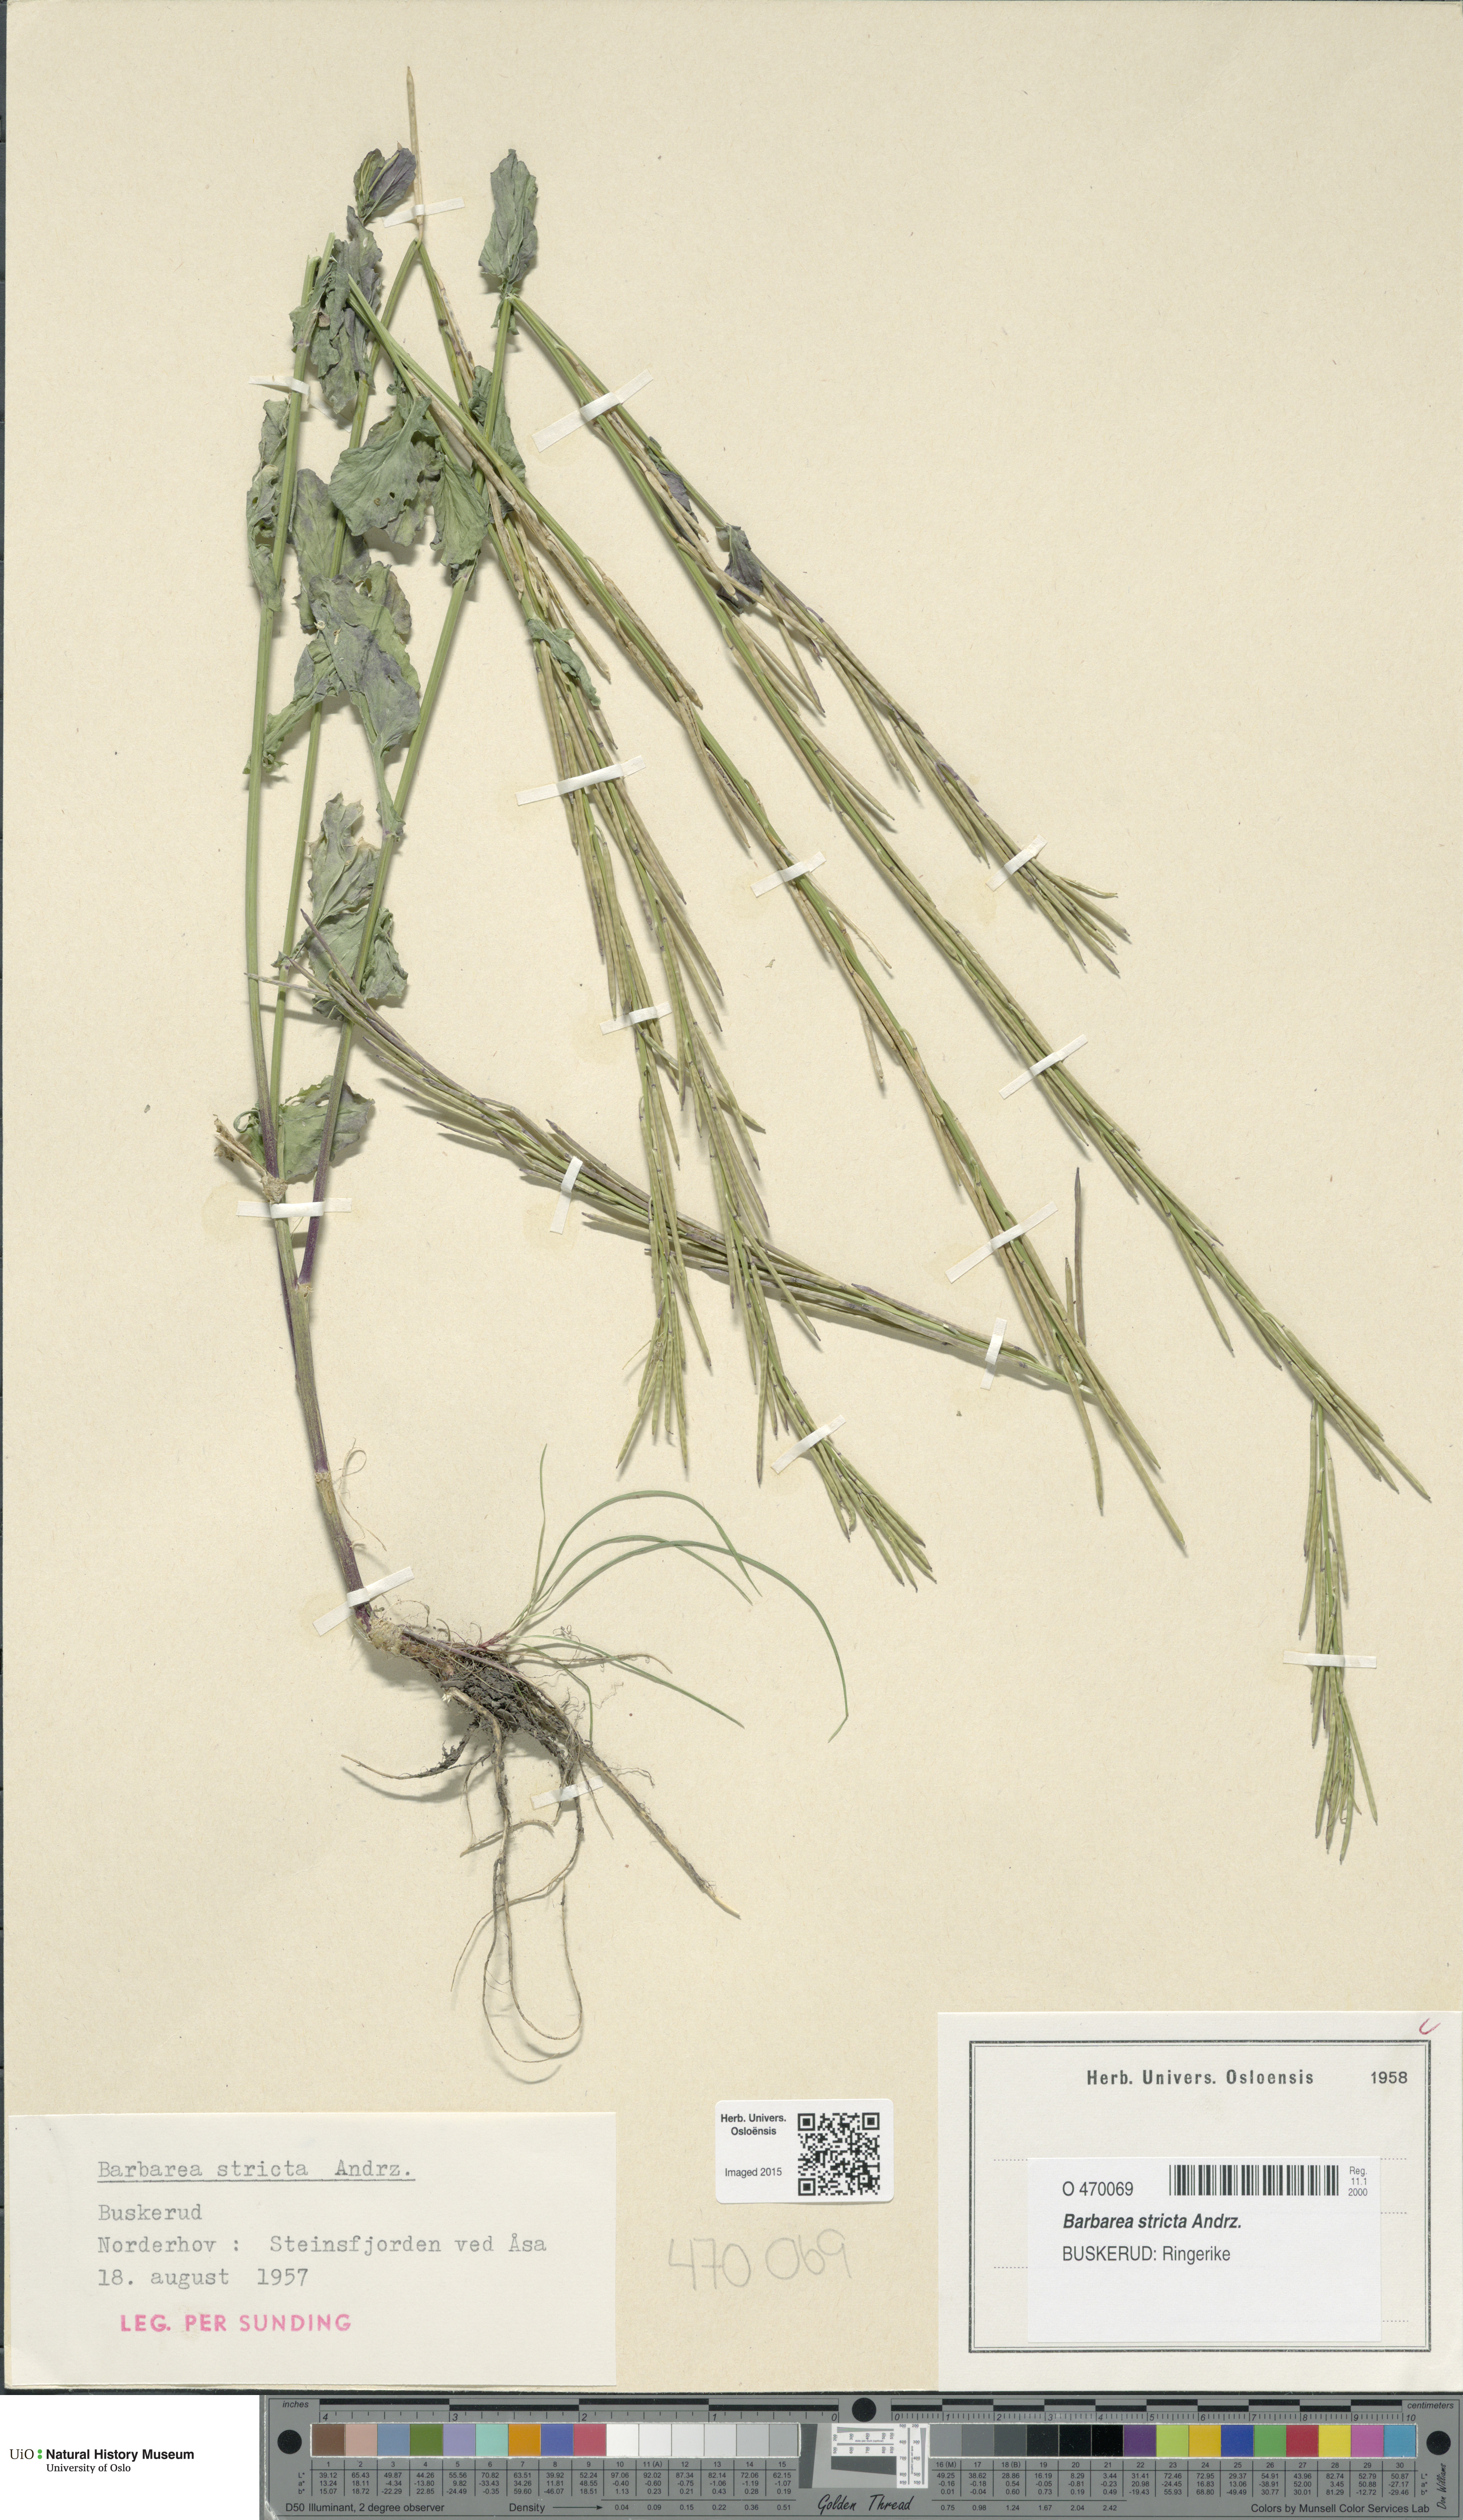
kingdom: Plantae
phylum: Tracheophyta
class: Magnoliopsida
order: Brassicales
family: Brassicaceae
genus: Barbarea
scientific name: Barbarea stricta
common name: Small-flowered winter-cress
